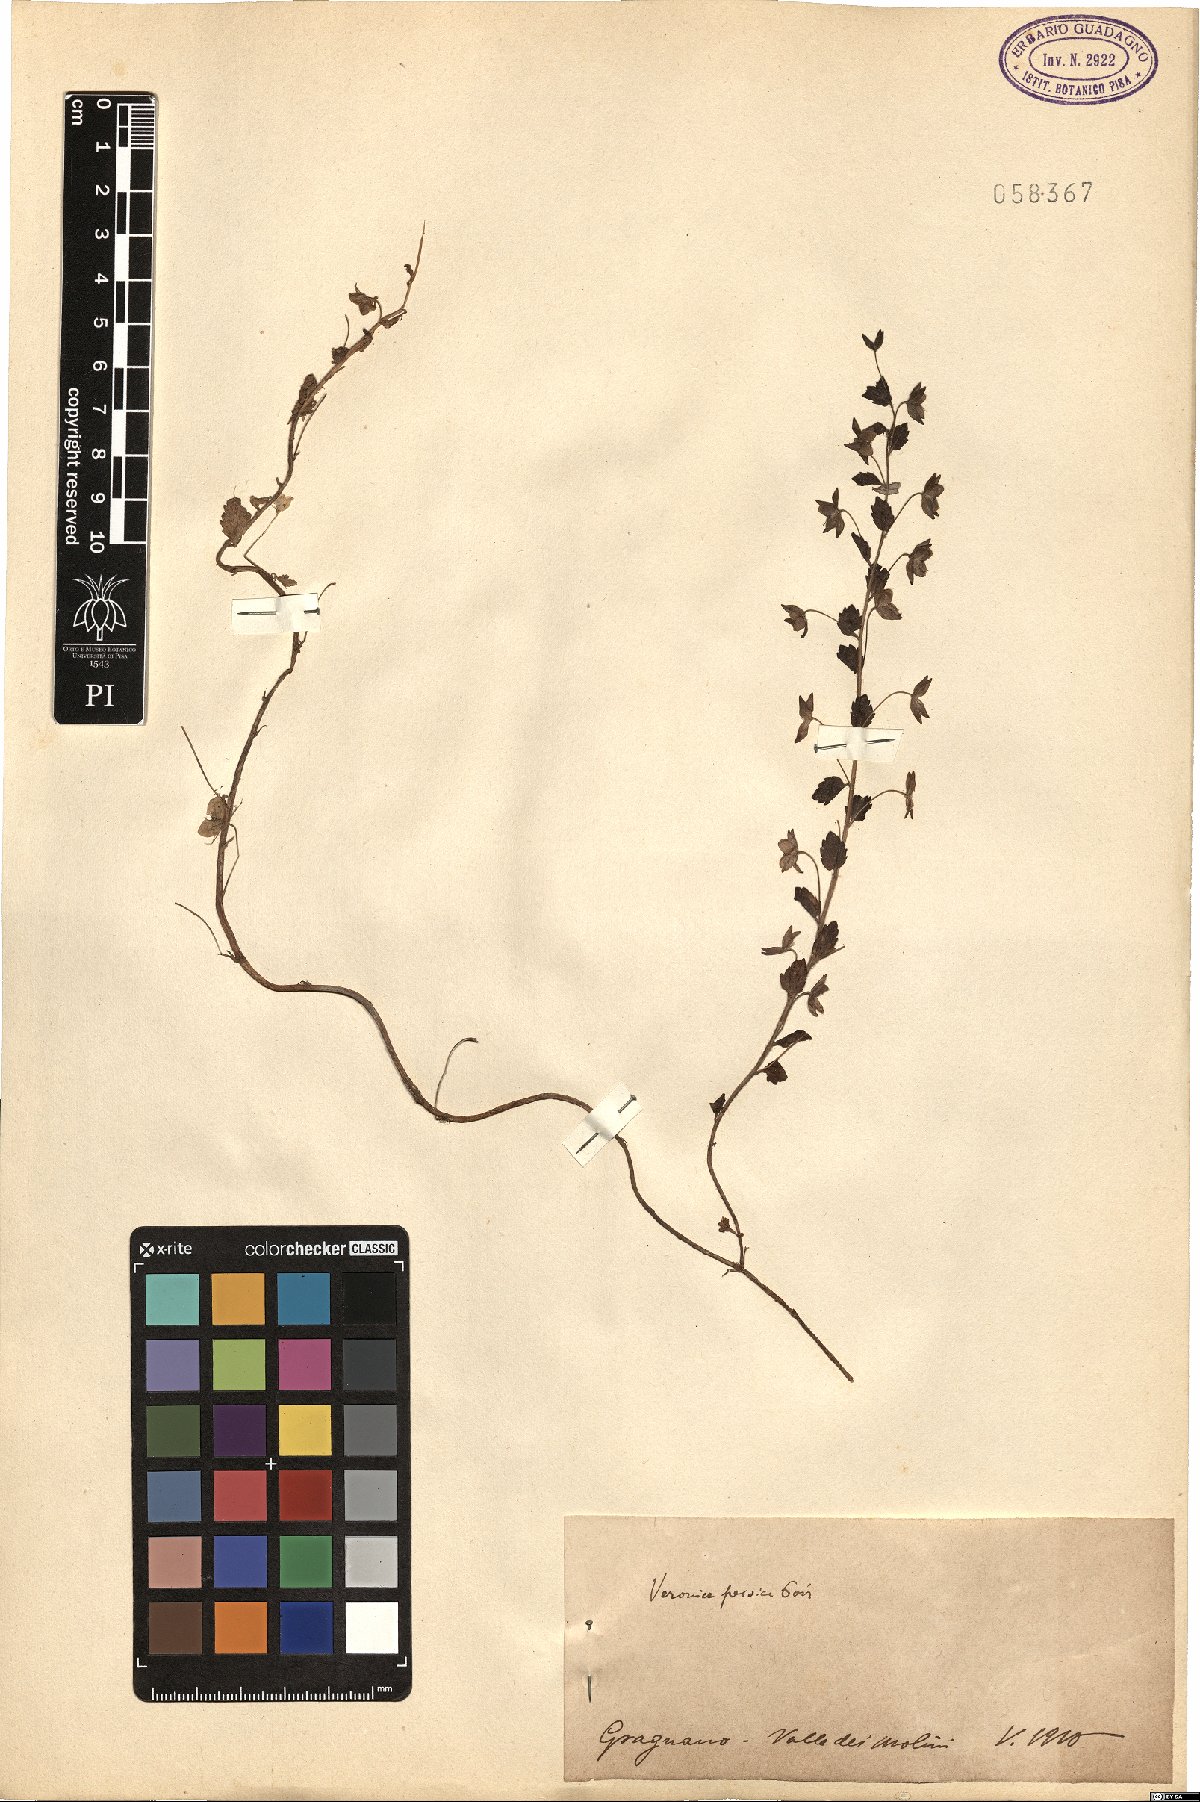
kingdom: Plantae
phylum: Tracheophyta
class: Magnoliopsida
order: Lamiales
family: Plantaginaceae
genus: Veronica
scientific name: Veronica persica
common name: Common field-speedwell
